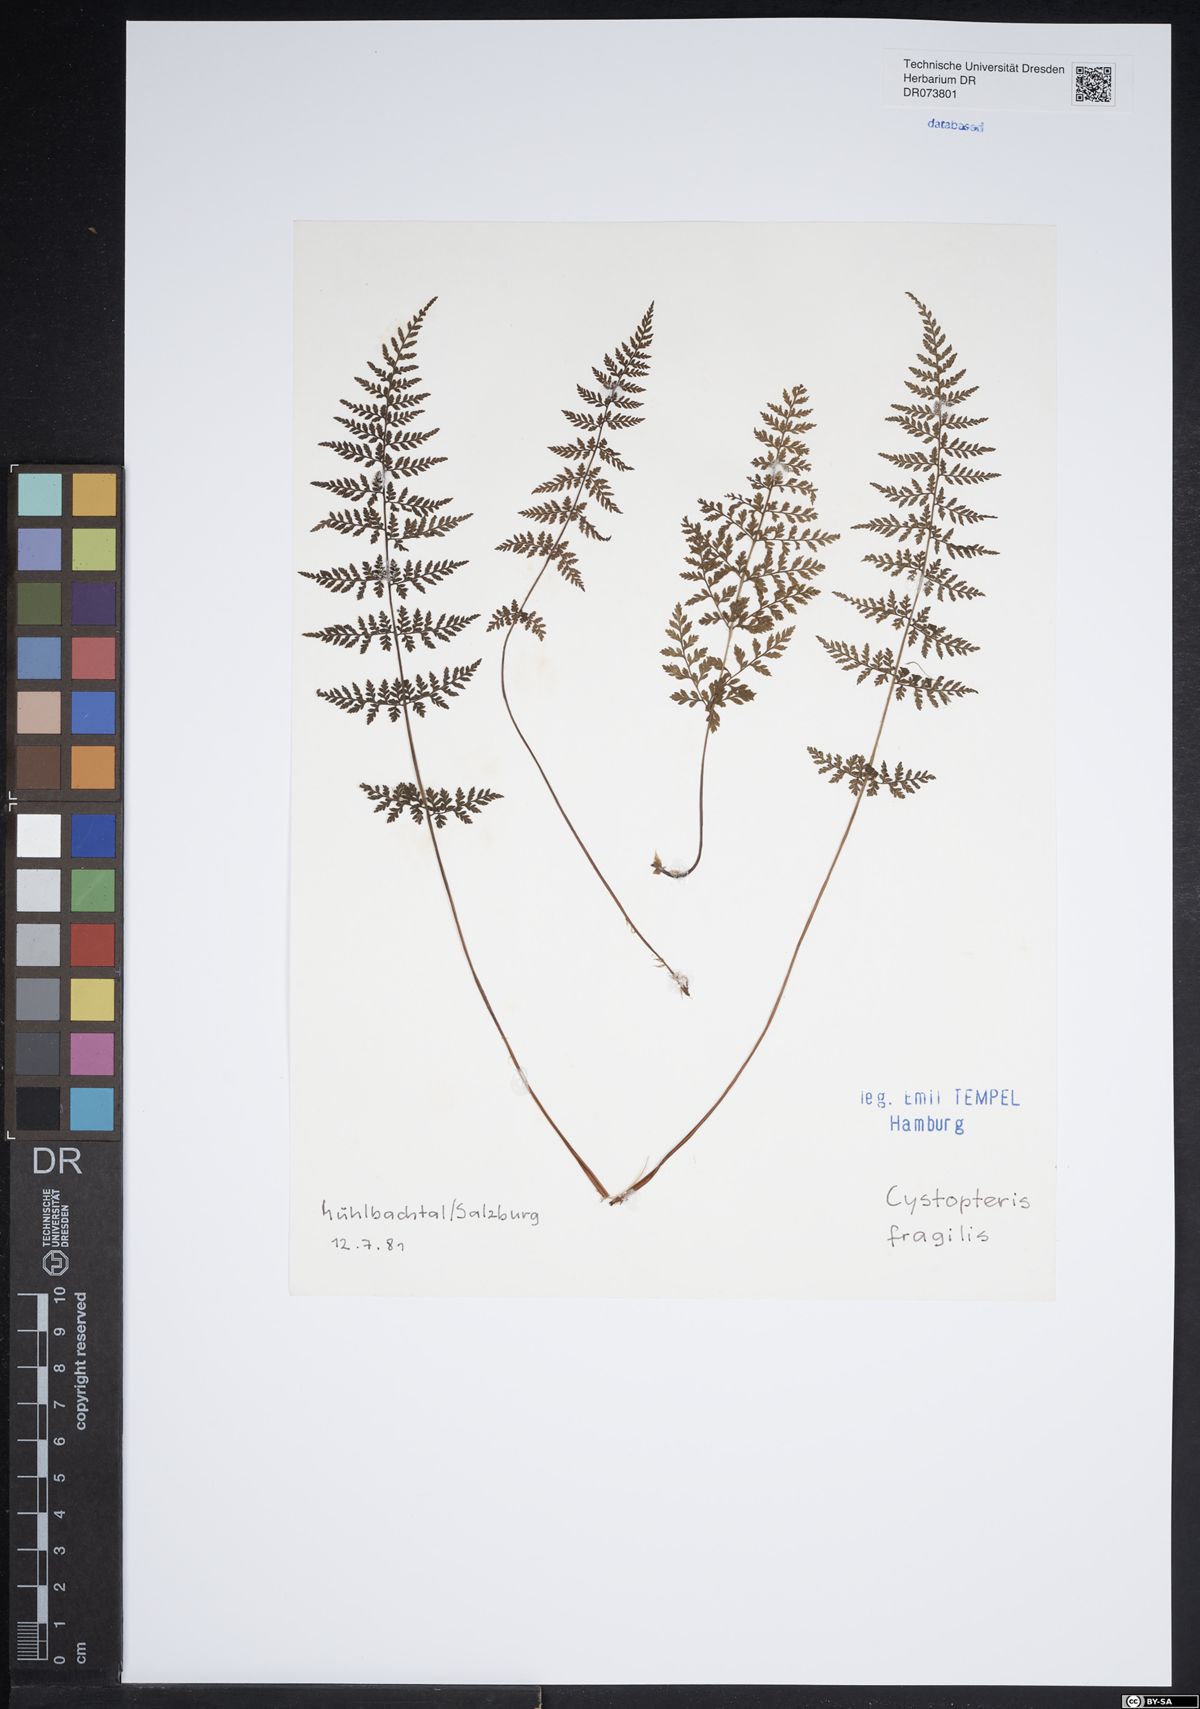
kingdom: Plantae
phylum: Tracheophyta
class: Polypodiopsida
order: Polypodiales
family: Cystopteridaceae
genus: Cystopteris
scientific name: Cystopteris fragilis
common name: Brittle bladder fern
